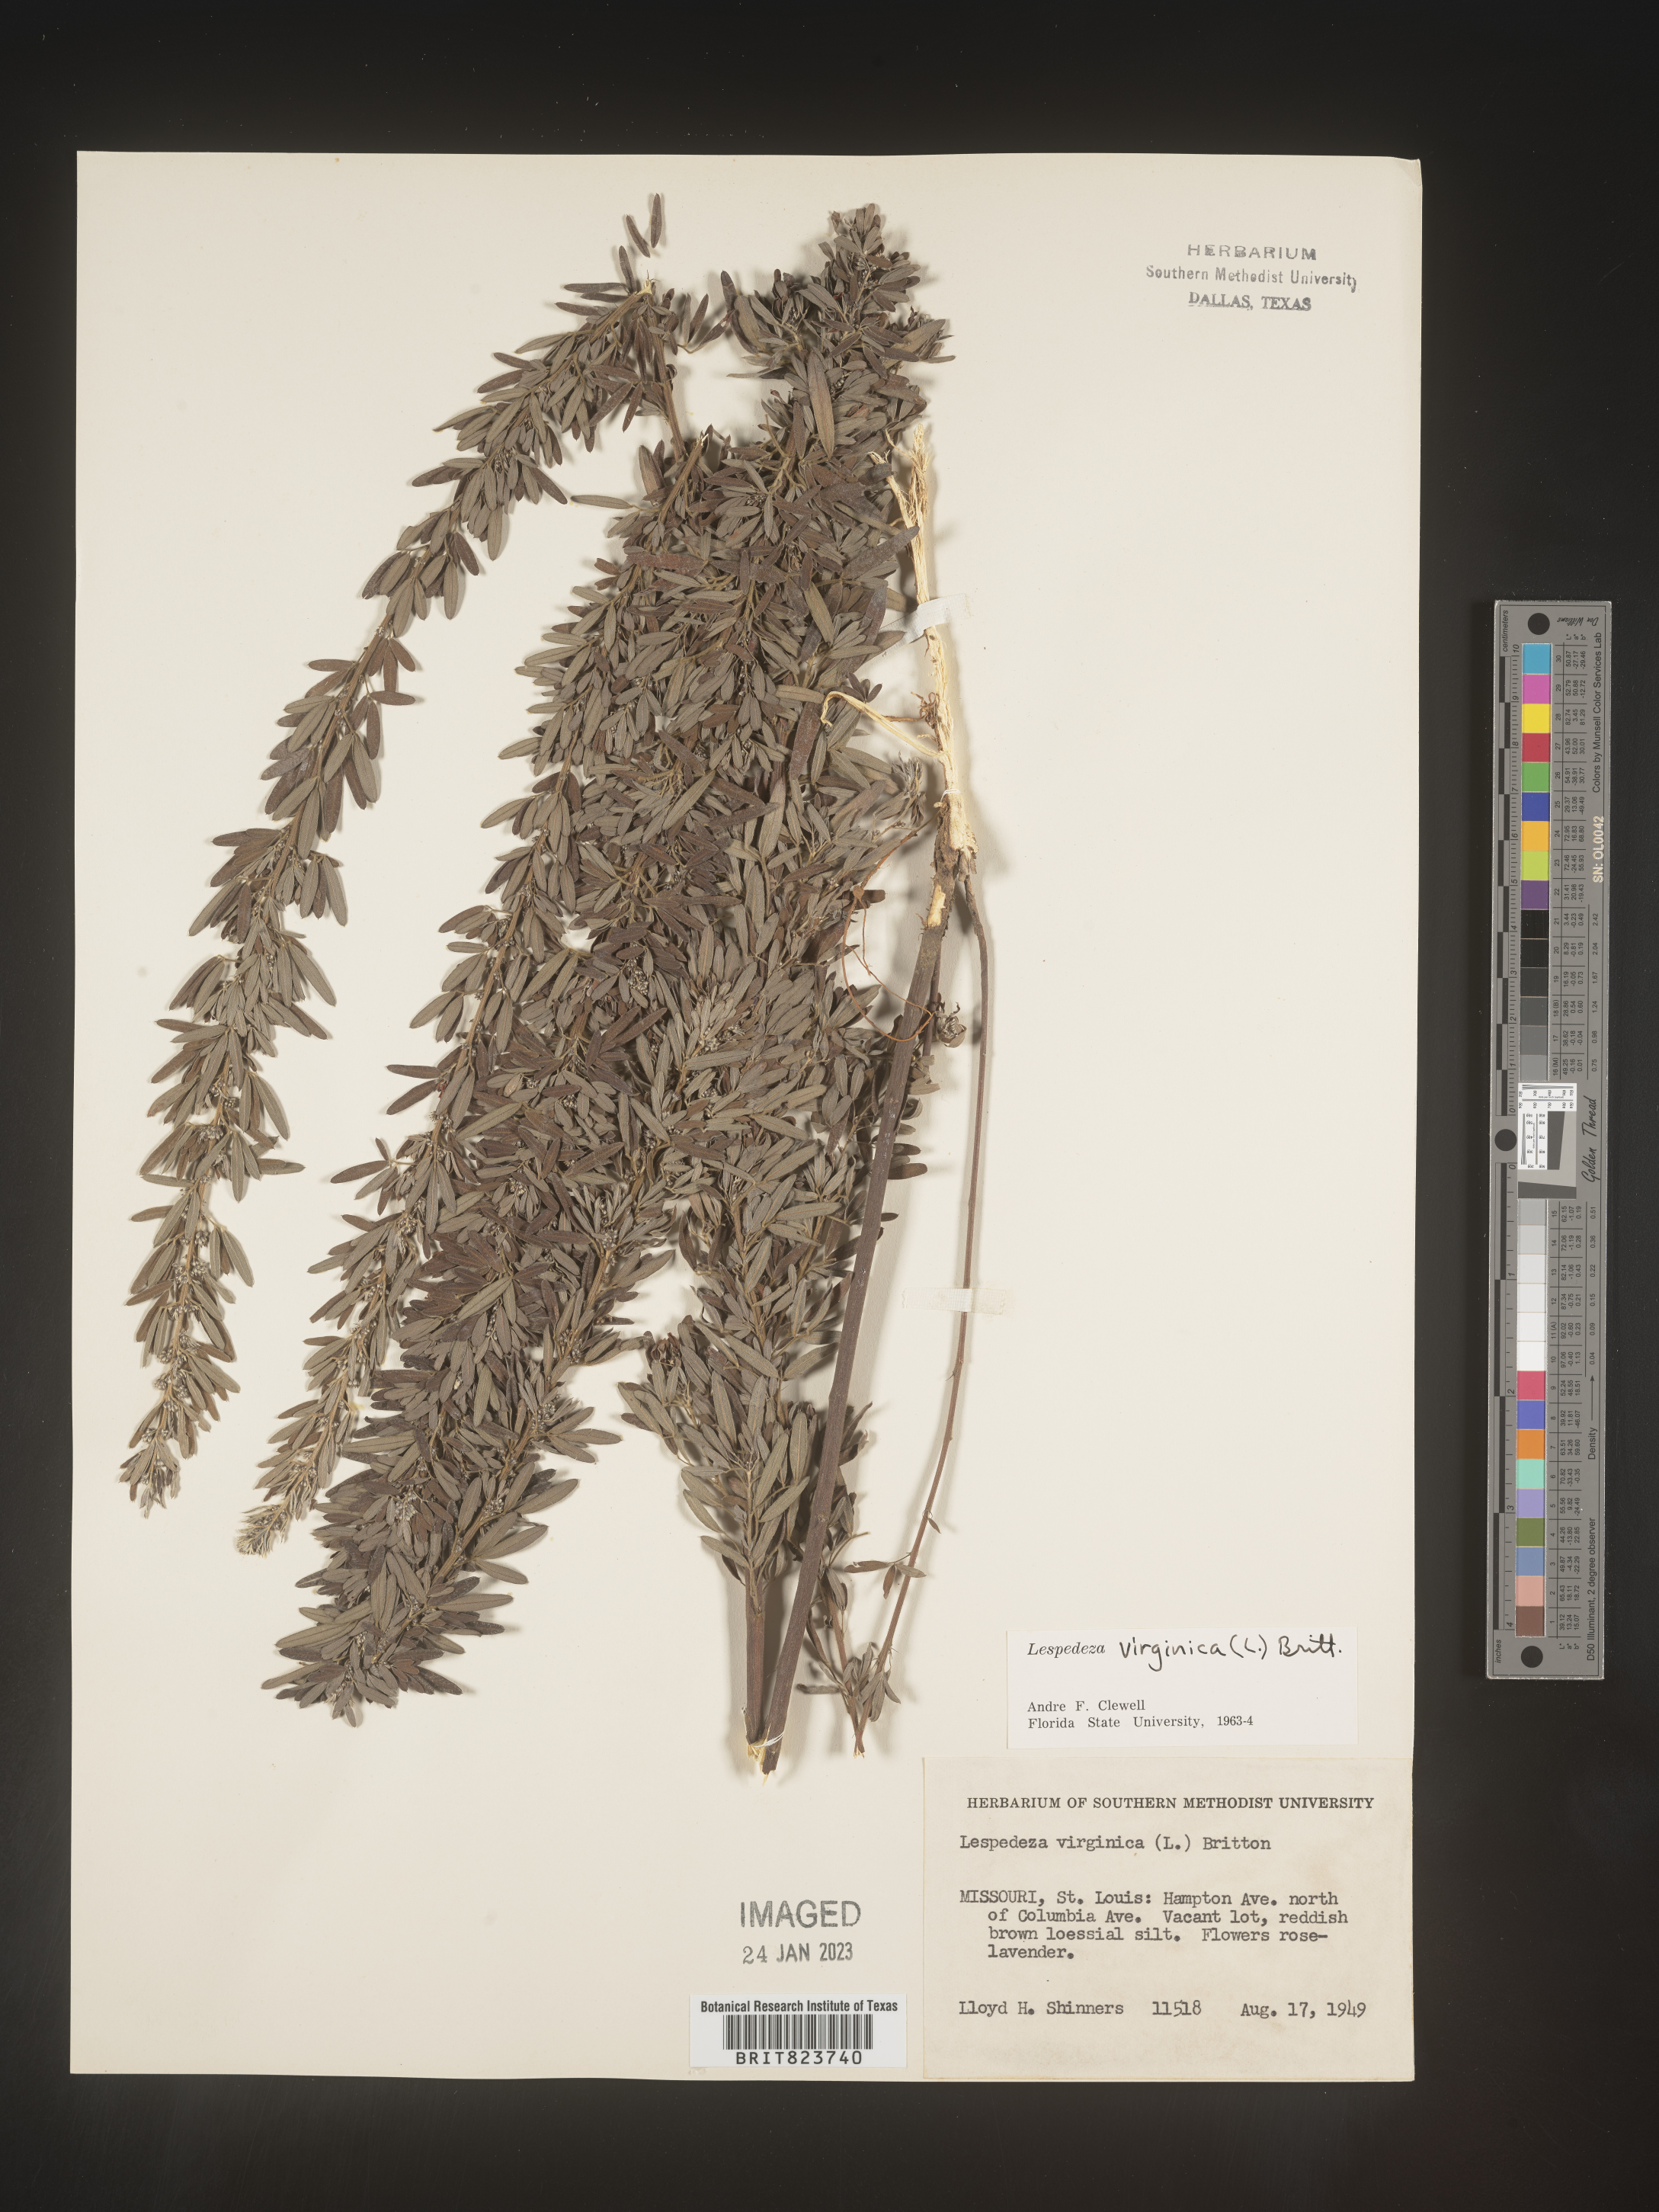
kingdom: Plantae
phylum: Tracheophyta
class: Magnoliopsida
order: Fabales
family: Fabaceae
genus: Lespedeza
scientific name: Lespedeza virginica
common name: Slender bush-clover
